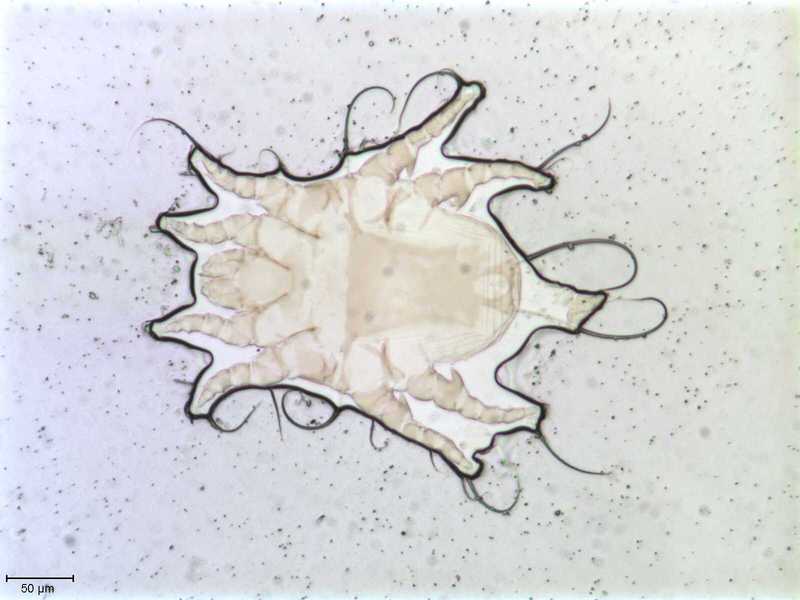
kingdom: Animalia
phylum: Arthropoda
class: Arachnida
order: Sarcoptiformes
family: Dermationidae
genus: Dermation
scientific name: Dermation gallinulae
